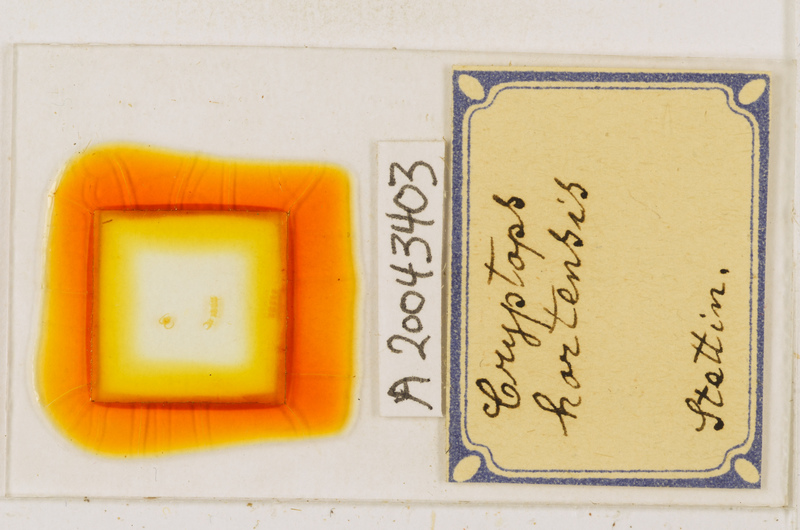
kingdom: Animalia
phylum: Arthropoda
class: Chilopoda
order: Scolopendromorpha
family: Cryptopidae
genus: Cryptops
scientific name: Cryptops hortensis
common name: Centipede
